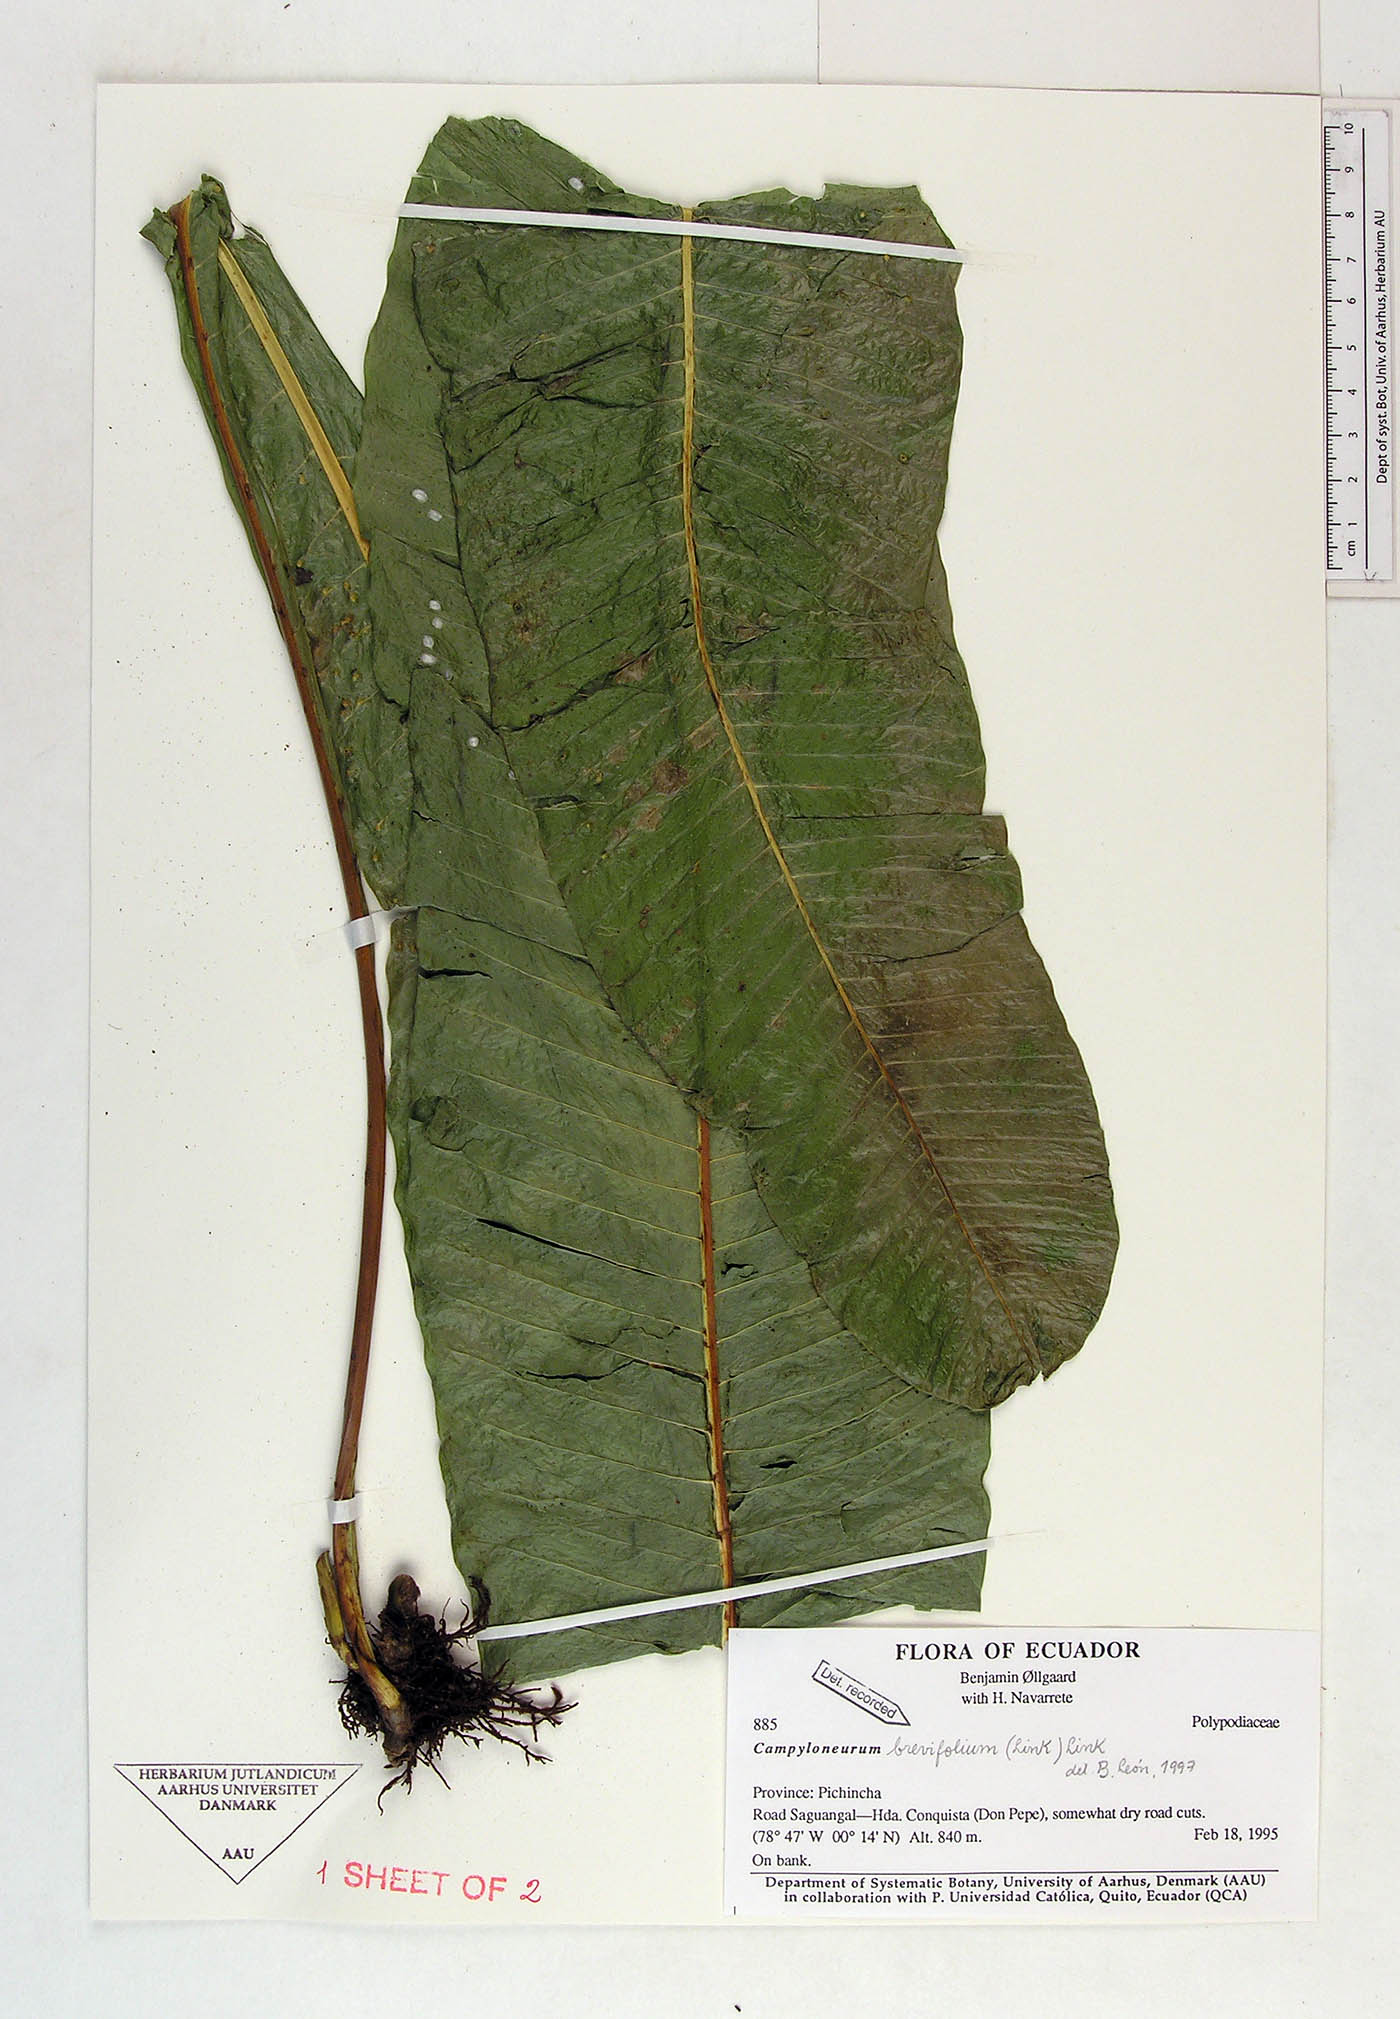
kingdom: Plantae
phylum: Tracheophyta
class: Polypodiopsida
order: Polypodiales
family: Polypodiaceae
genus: Campyloneurum
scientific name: Campyloneurum brevifolium
